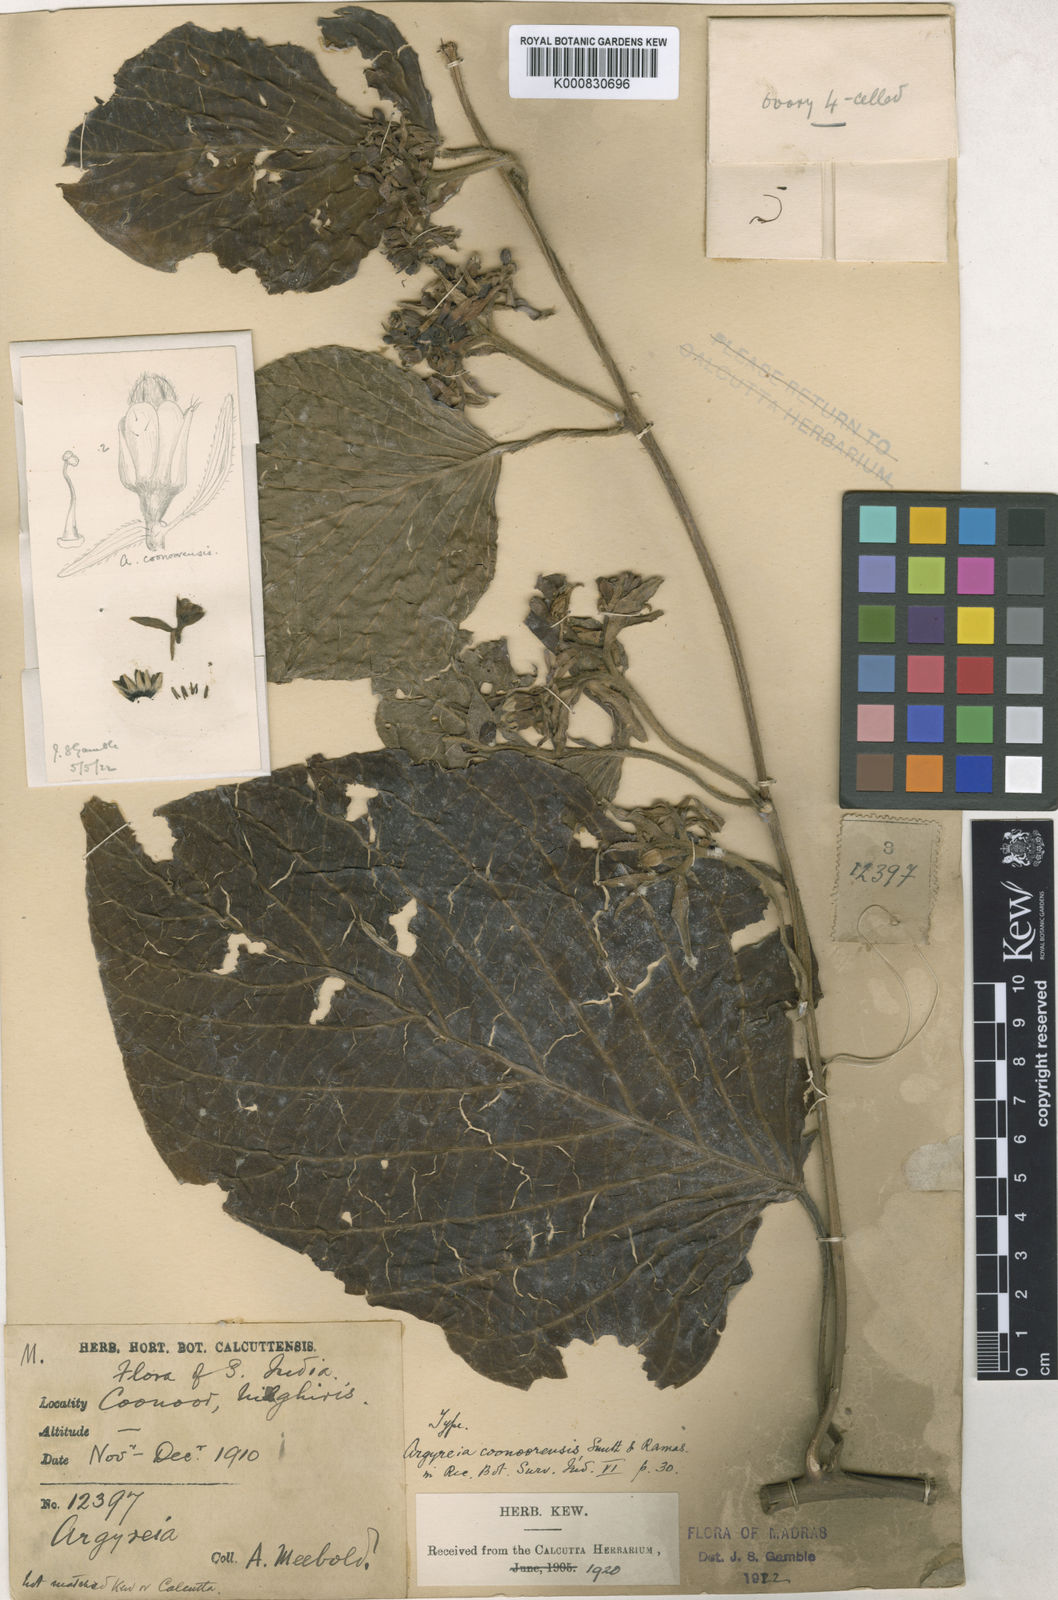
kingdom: Plantae
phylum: Tracheophyta
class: Magnoliopsida
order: Solanales
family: Convolvulaceae
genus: Argyreia
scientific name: Argyreia coonoorensis
